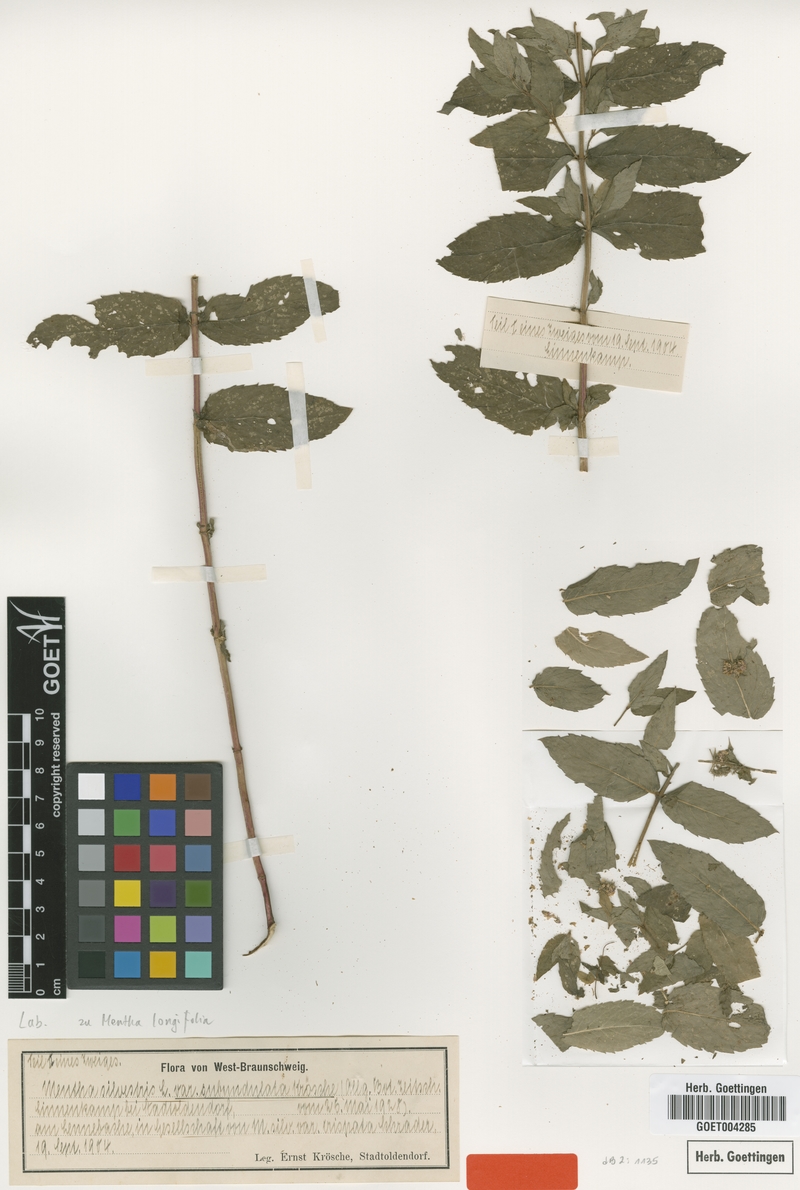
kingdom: Plantae
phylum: Tracheophyta
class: Magnoliopsida
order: Lamiales
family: Lamiaceae
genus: Mentha
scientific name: Mentha longifolia
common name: Horse mint
